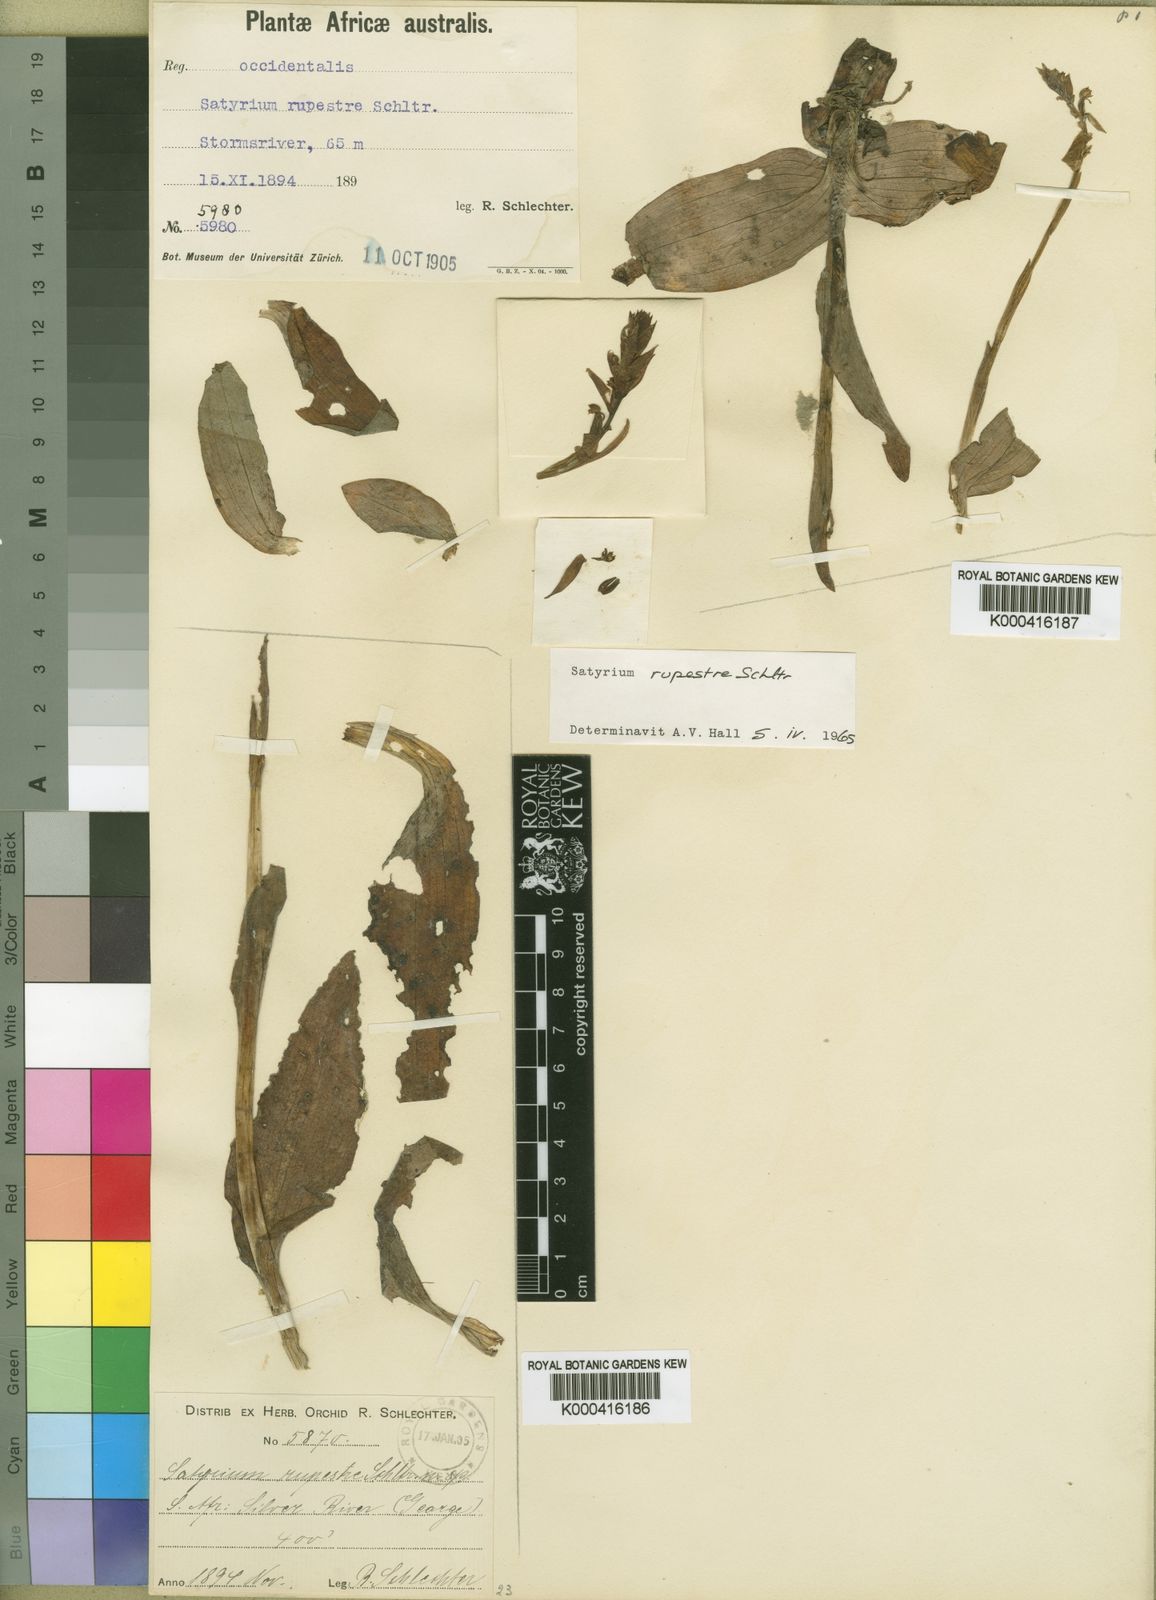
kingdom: Plantae
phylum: Tracheophyta
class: Liliopsida
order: Asparagales
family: Orchidaceae
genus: Satyrium
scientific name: Satyrium
